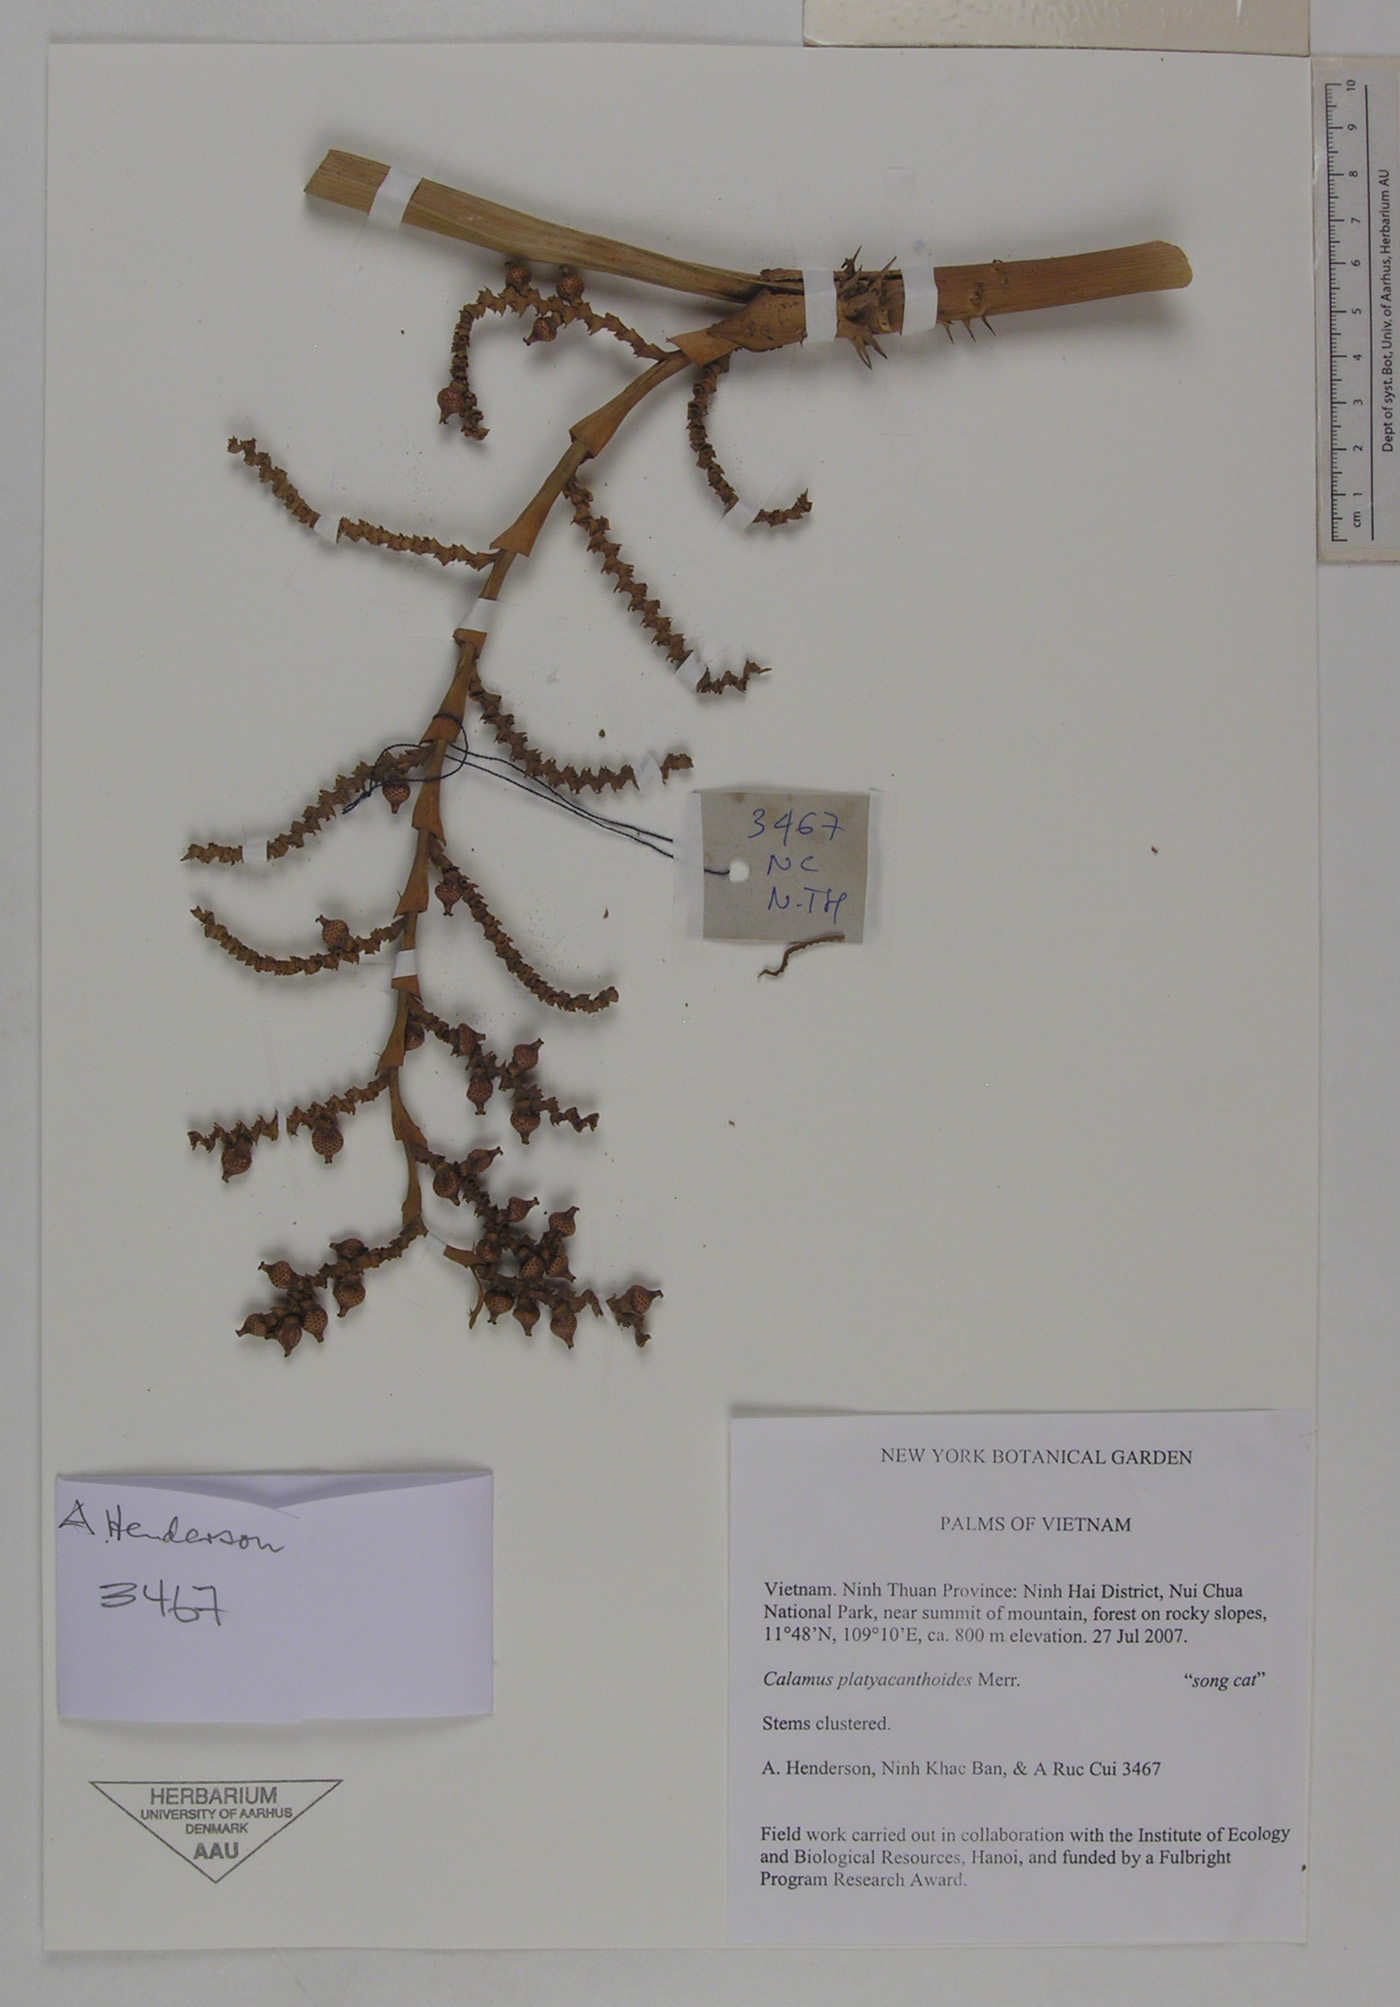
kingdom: Plantae
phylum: Tracheophyta
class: Liliopsida
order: Arecales
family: Arecaceae
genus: Calamus
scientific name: Calamus inermis
